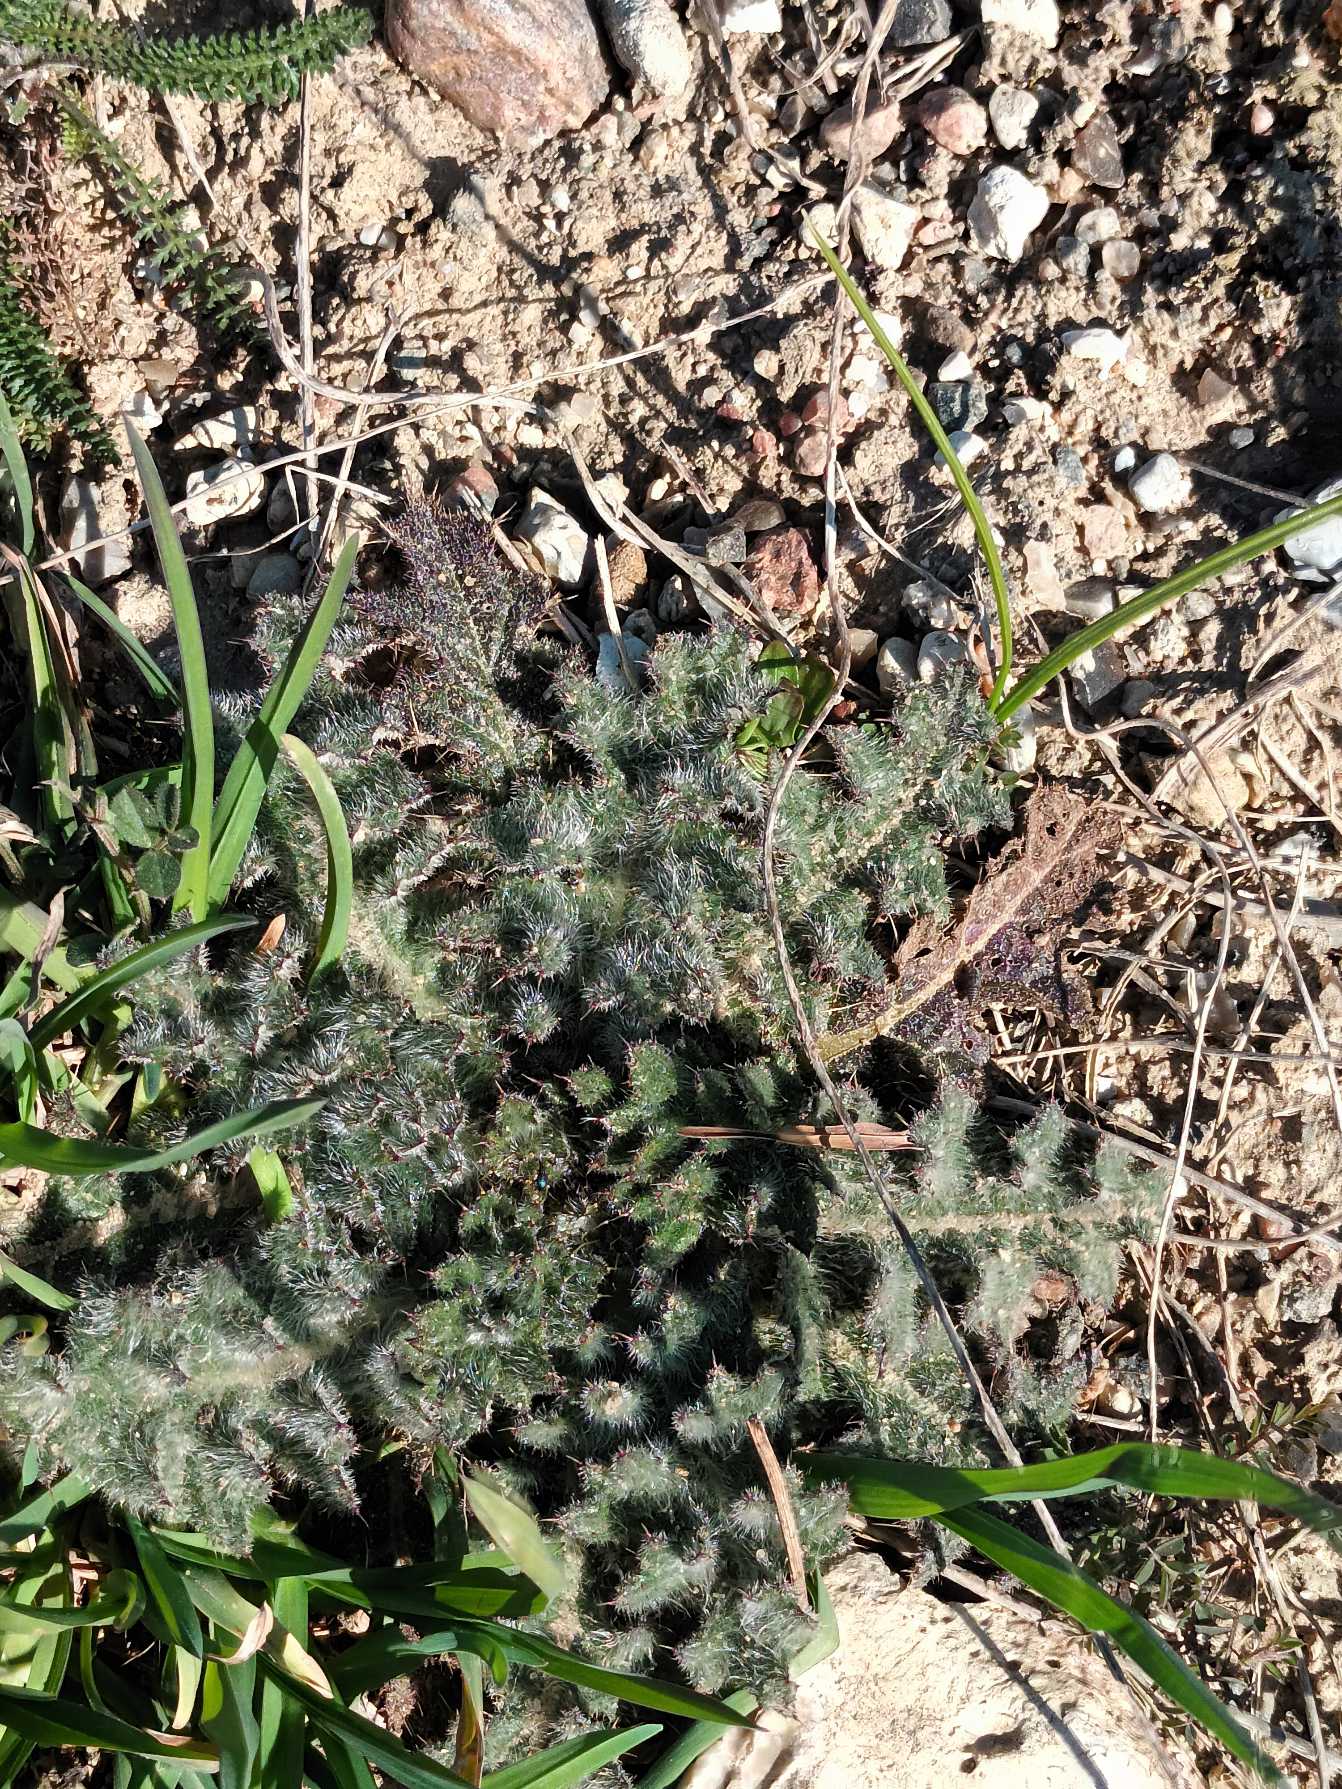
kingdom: Plantae
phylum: Tracheophyta
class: Magnoliopsida
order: Asterales
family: Asteraceae
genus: Cirsium
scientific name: Cirsium vulgare
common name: Horse-tidsel
